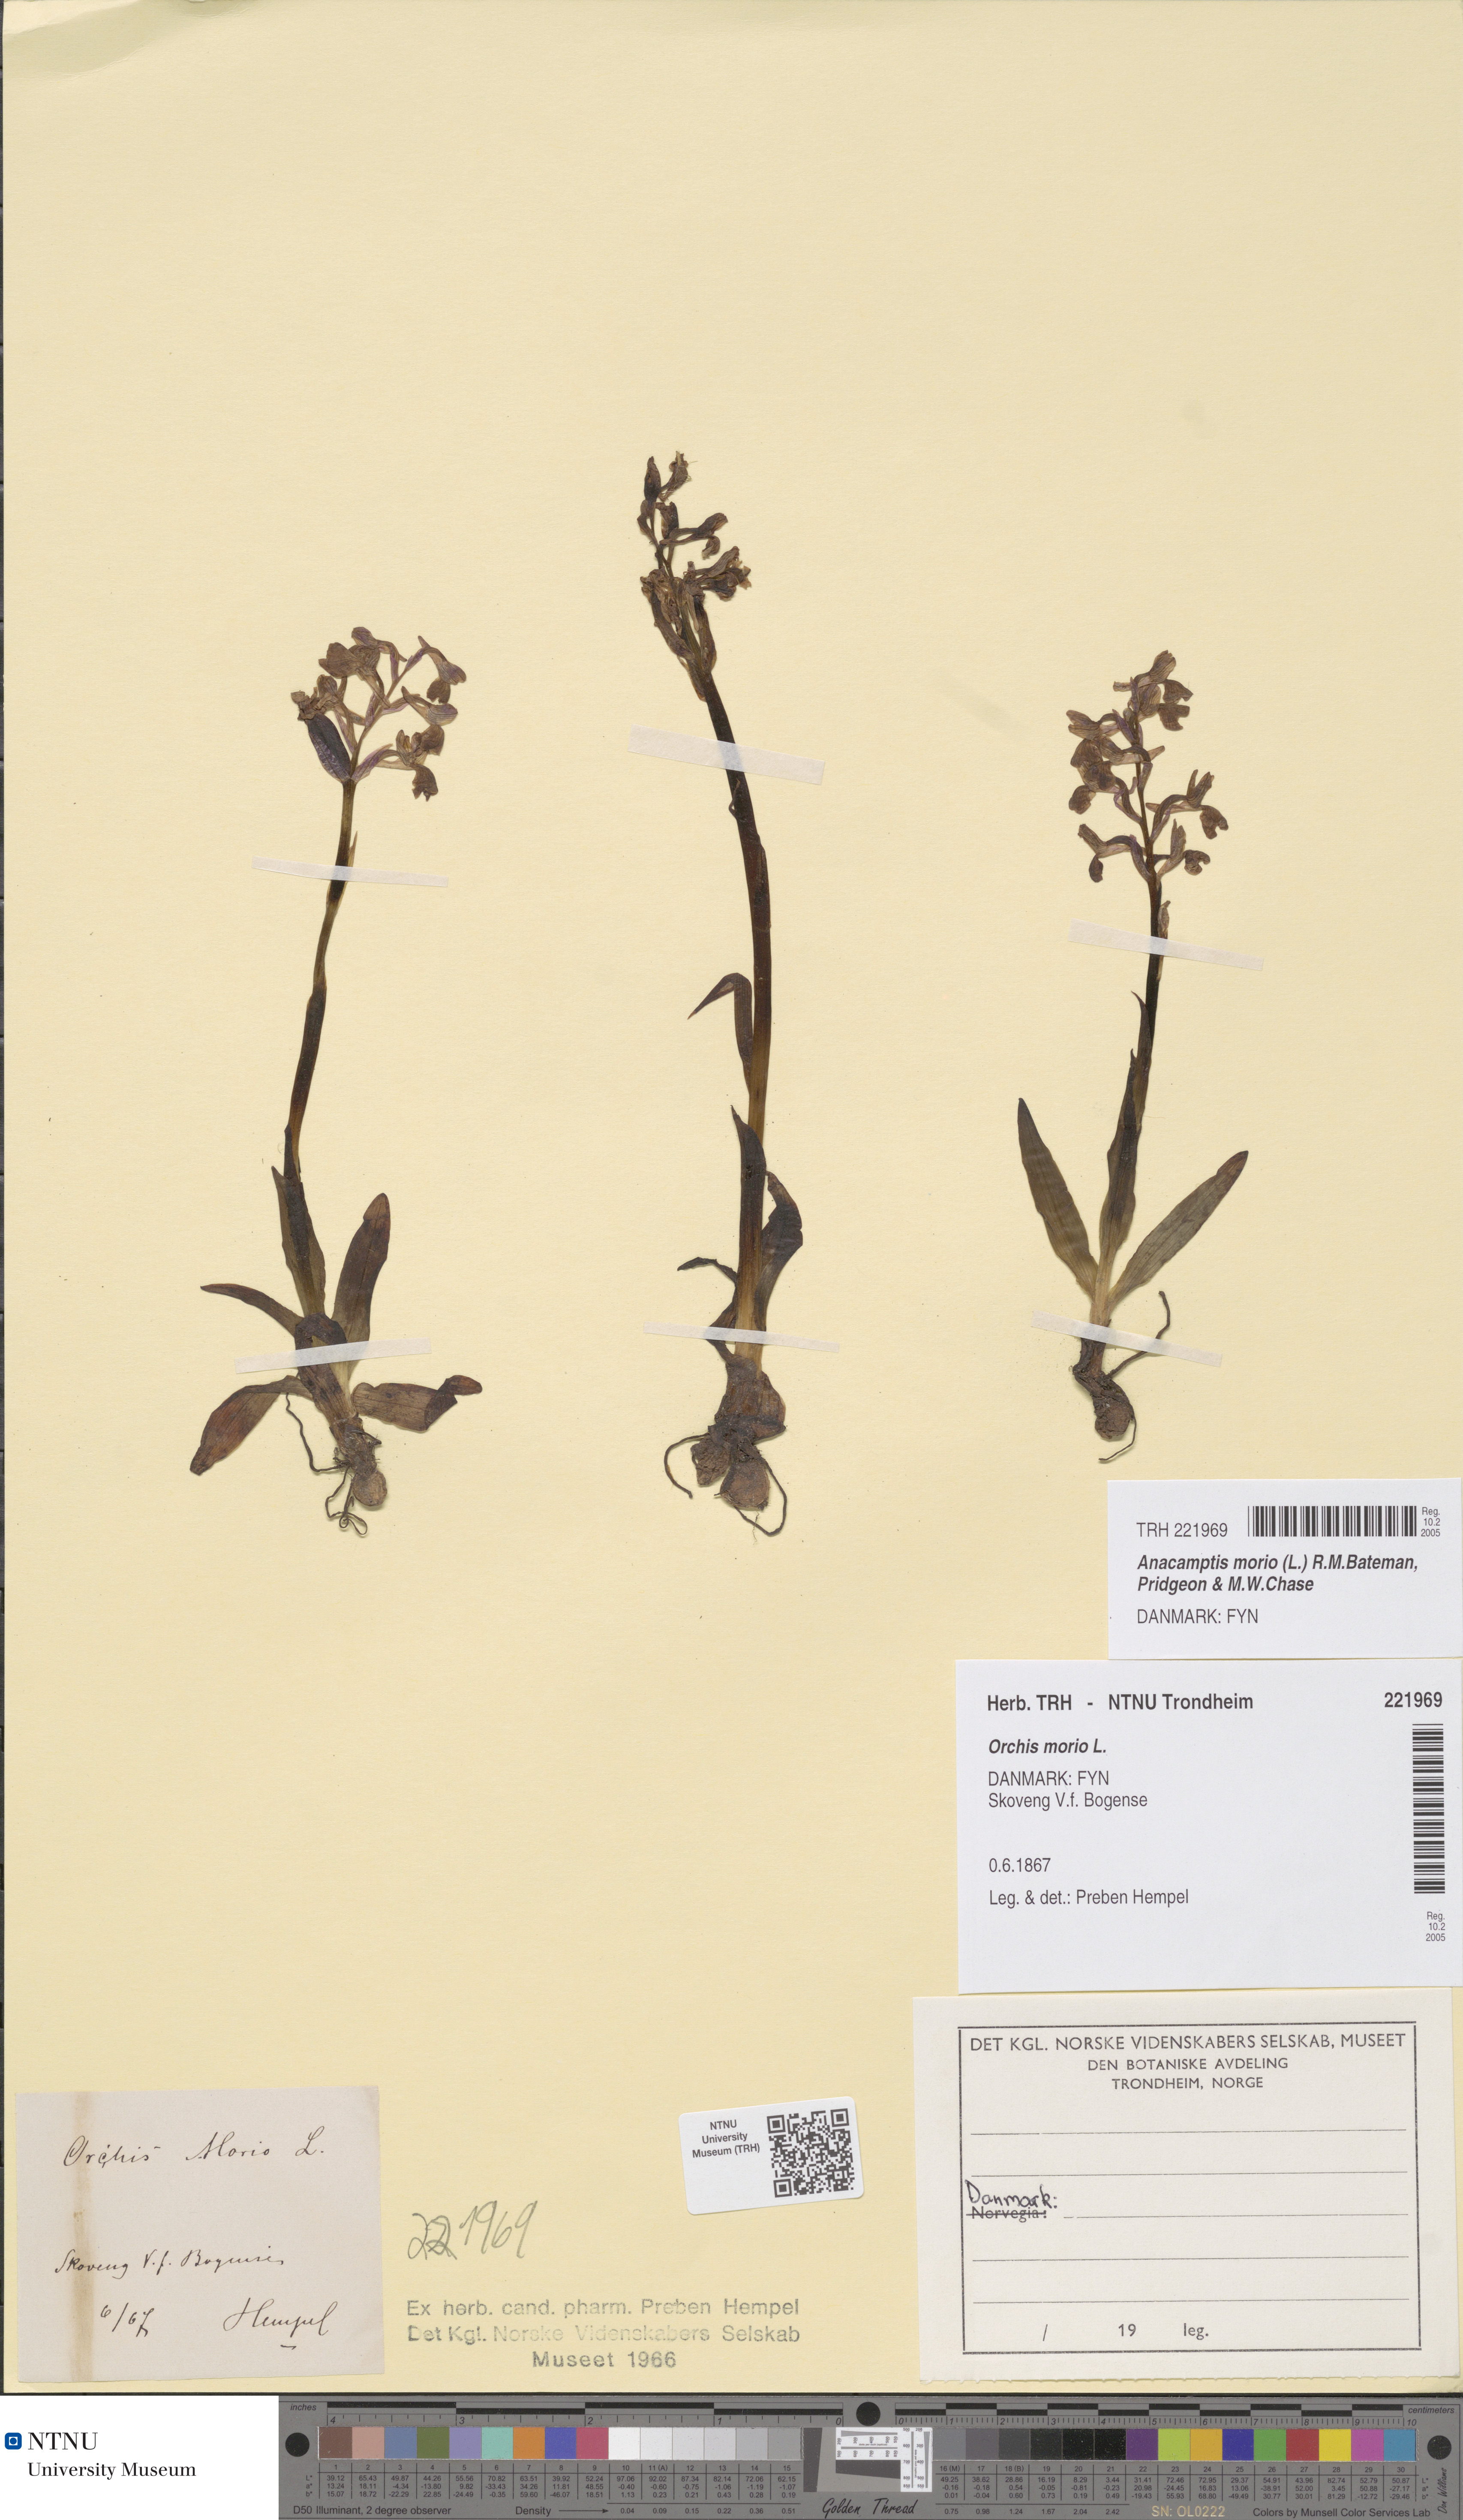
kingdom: Plantae
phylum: Tracheophyta
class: Liliopsida
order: Asparagales
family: Orchidaceae
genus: Anacamptis
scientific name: Anacamptis morio
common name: Green-winged orchid
